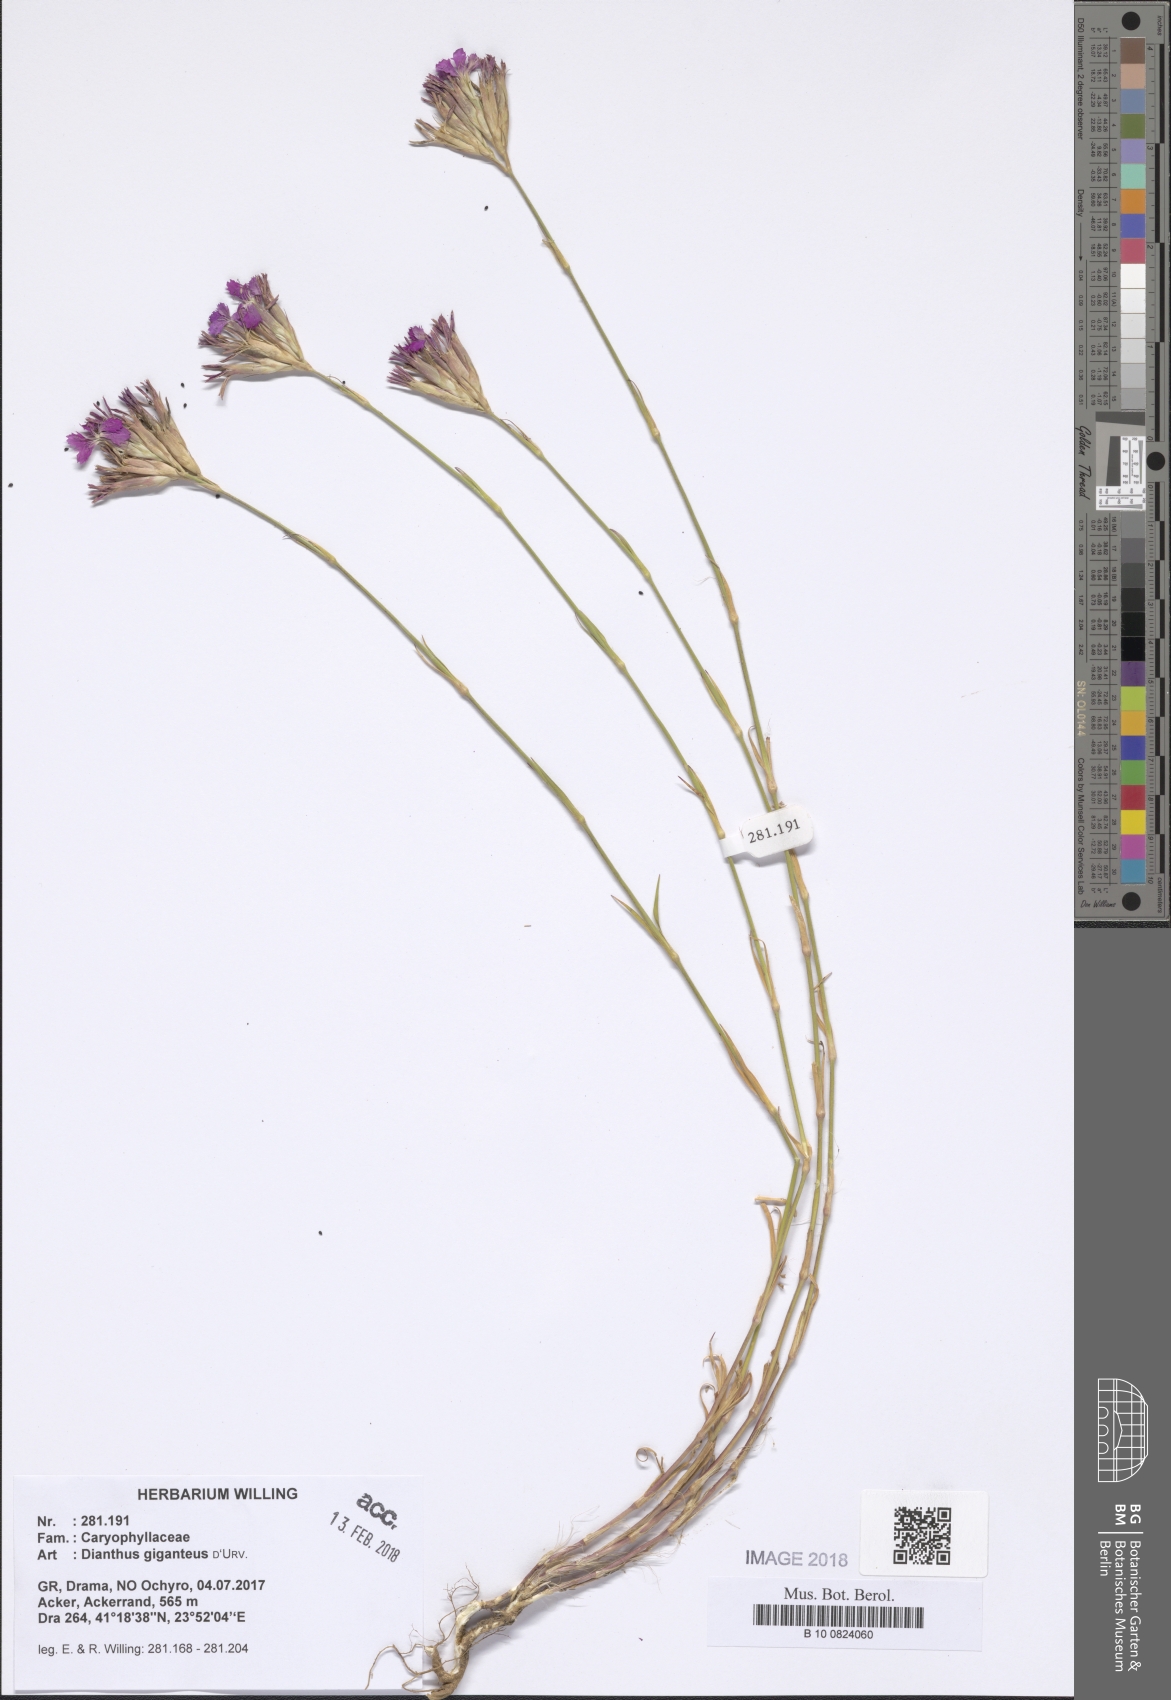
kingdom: Plantae
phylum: Tracheophyta
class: Magnoliopsida
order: Caryophyllales
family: Caryophyllaceae
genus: Dianthus
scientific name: Dianthus giganteus
